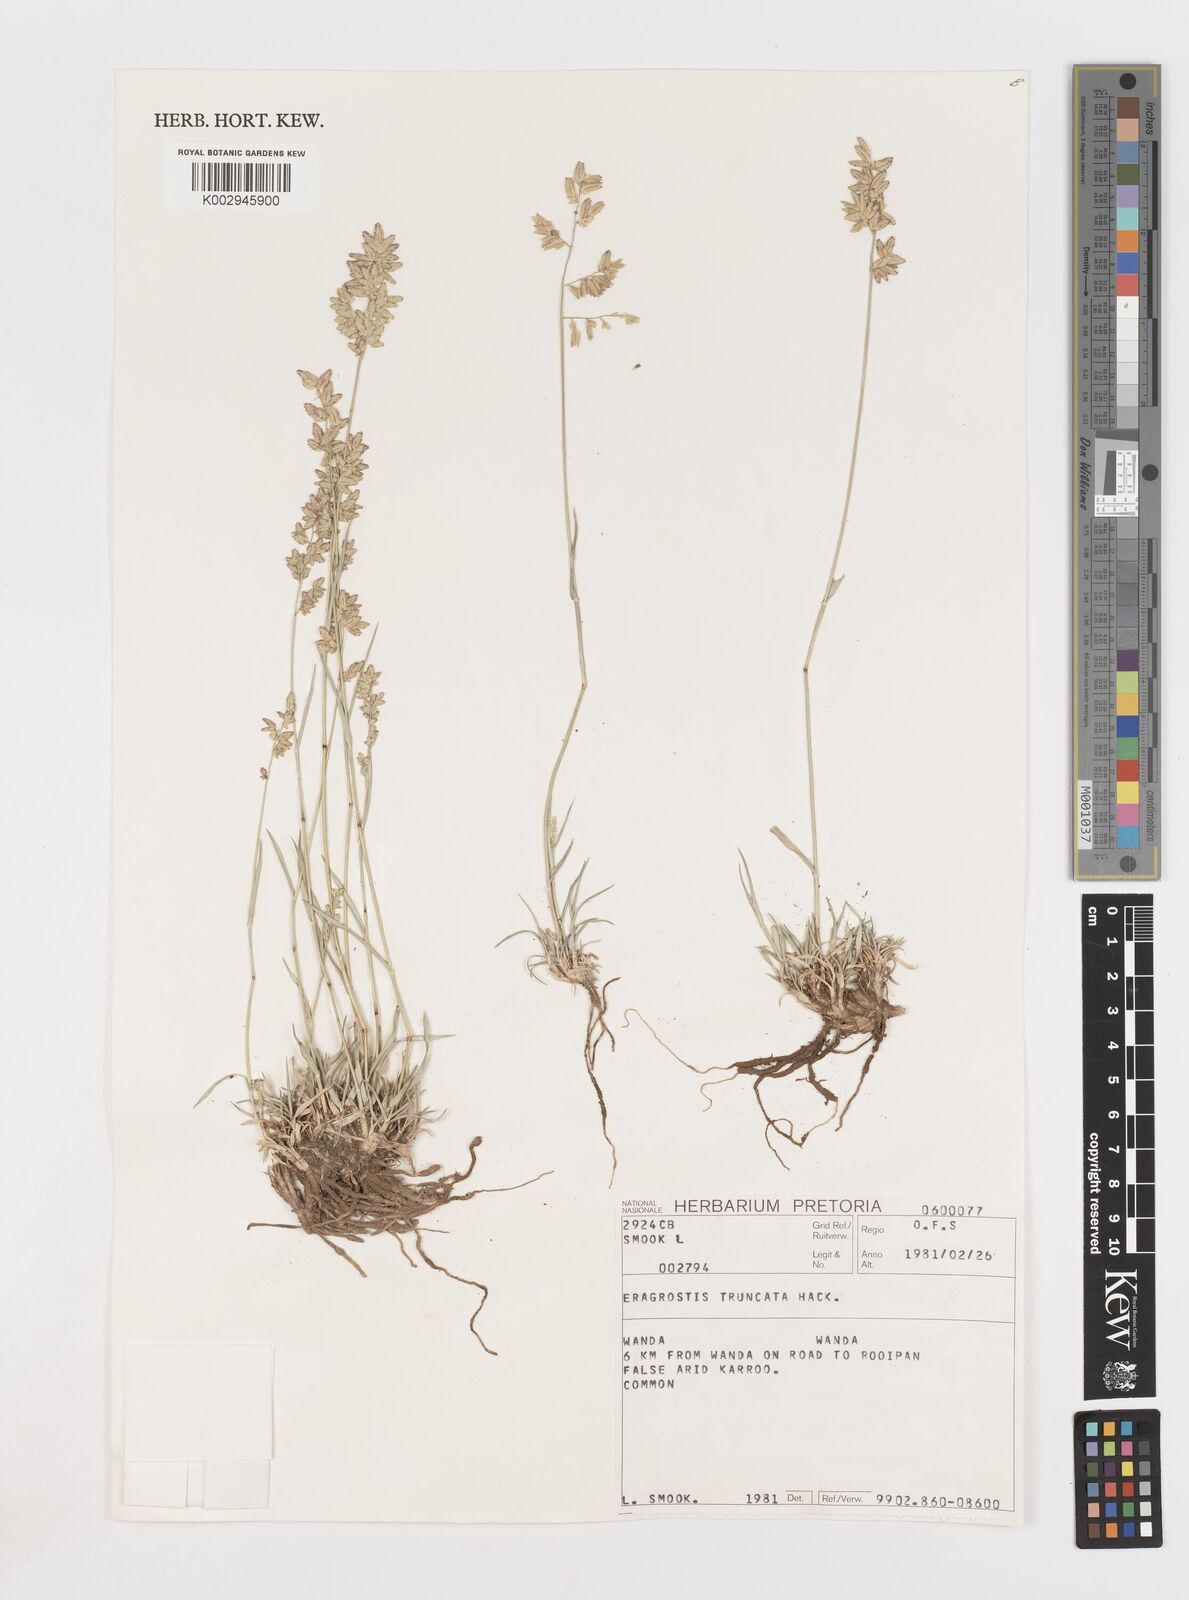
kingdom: Plantae
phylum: Tracheophyta
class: Liliopsida
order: Poales
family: Poaceae
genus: Eragrostis
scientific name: Eragrostis truncata
